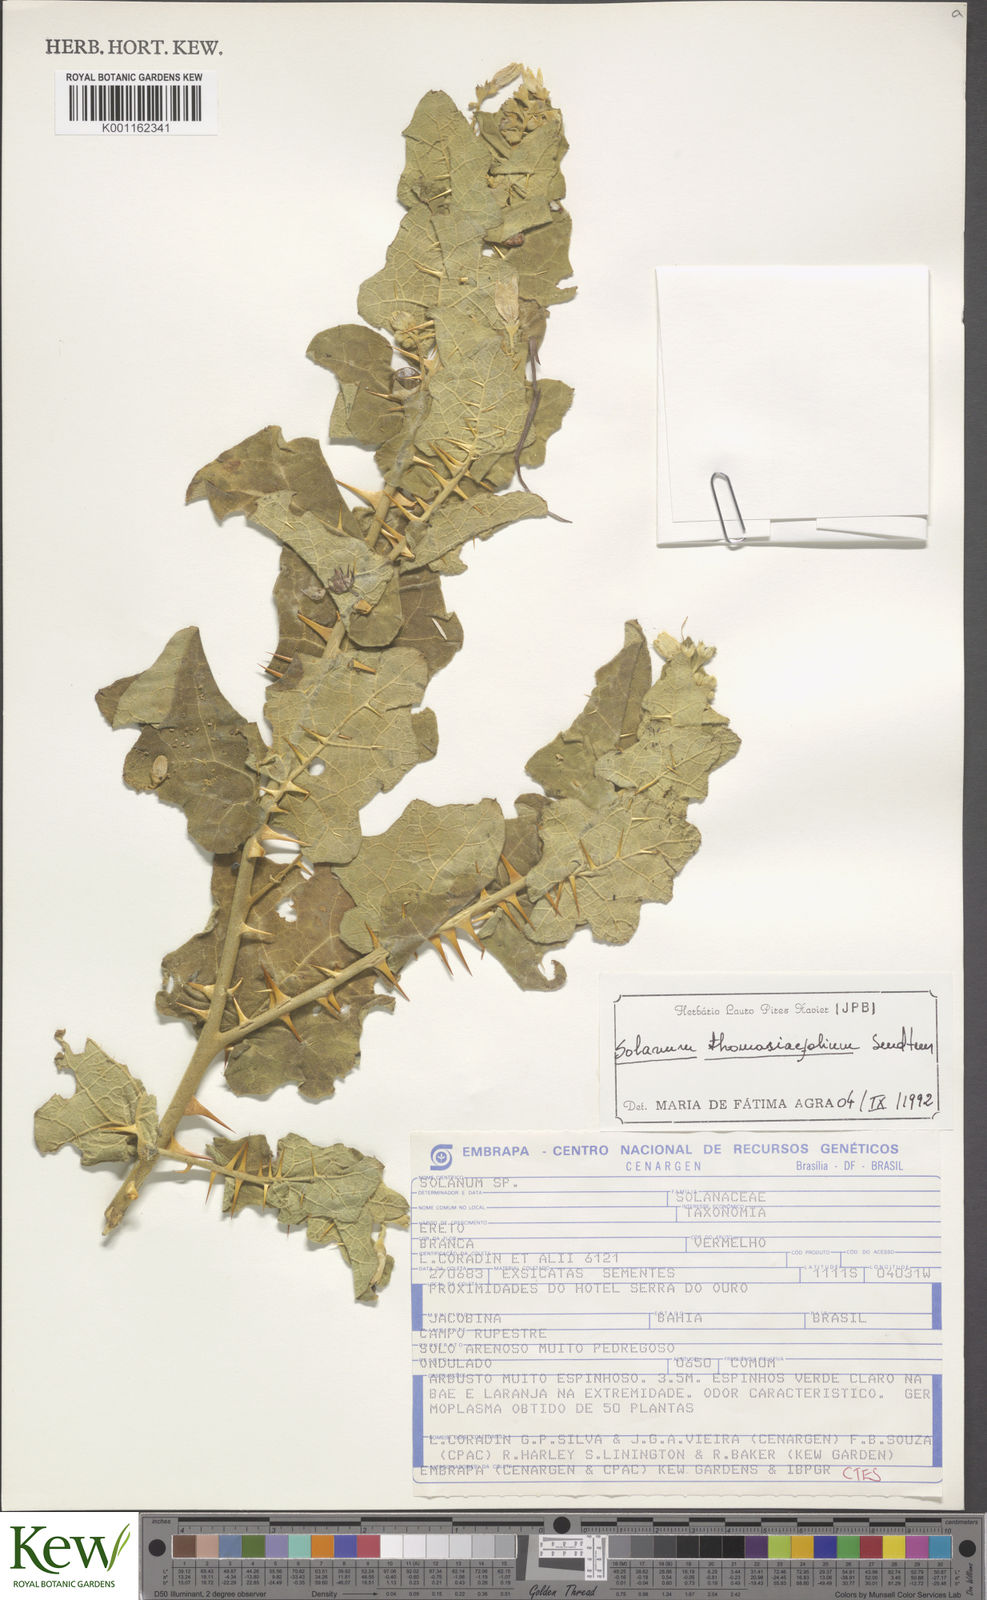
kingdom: Plantae
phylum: Tracheophyta
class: Magnoliopsida
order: Solanales
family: Solanaceae
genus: Solanum
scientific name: Solanum thomasiifolium
